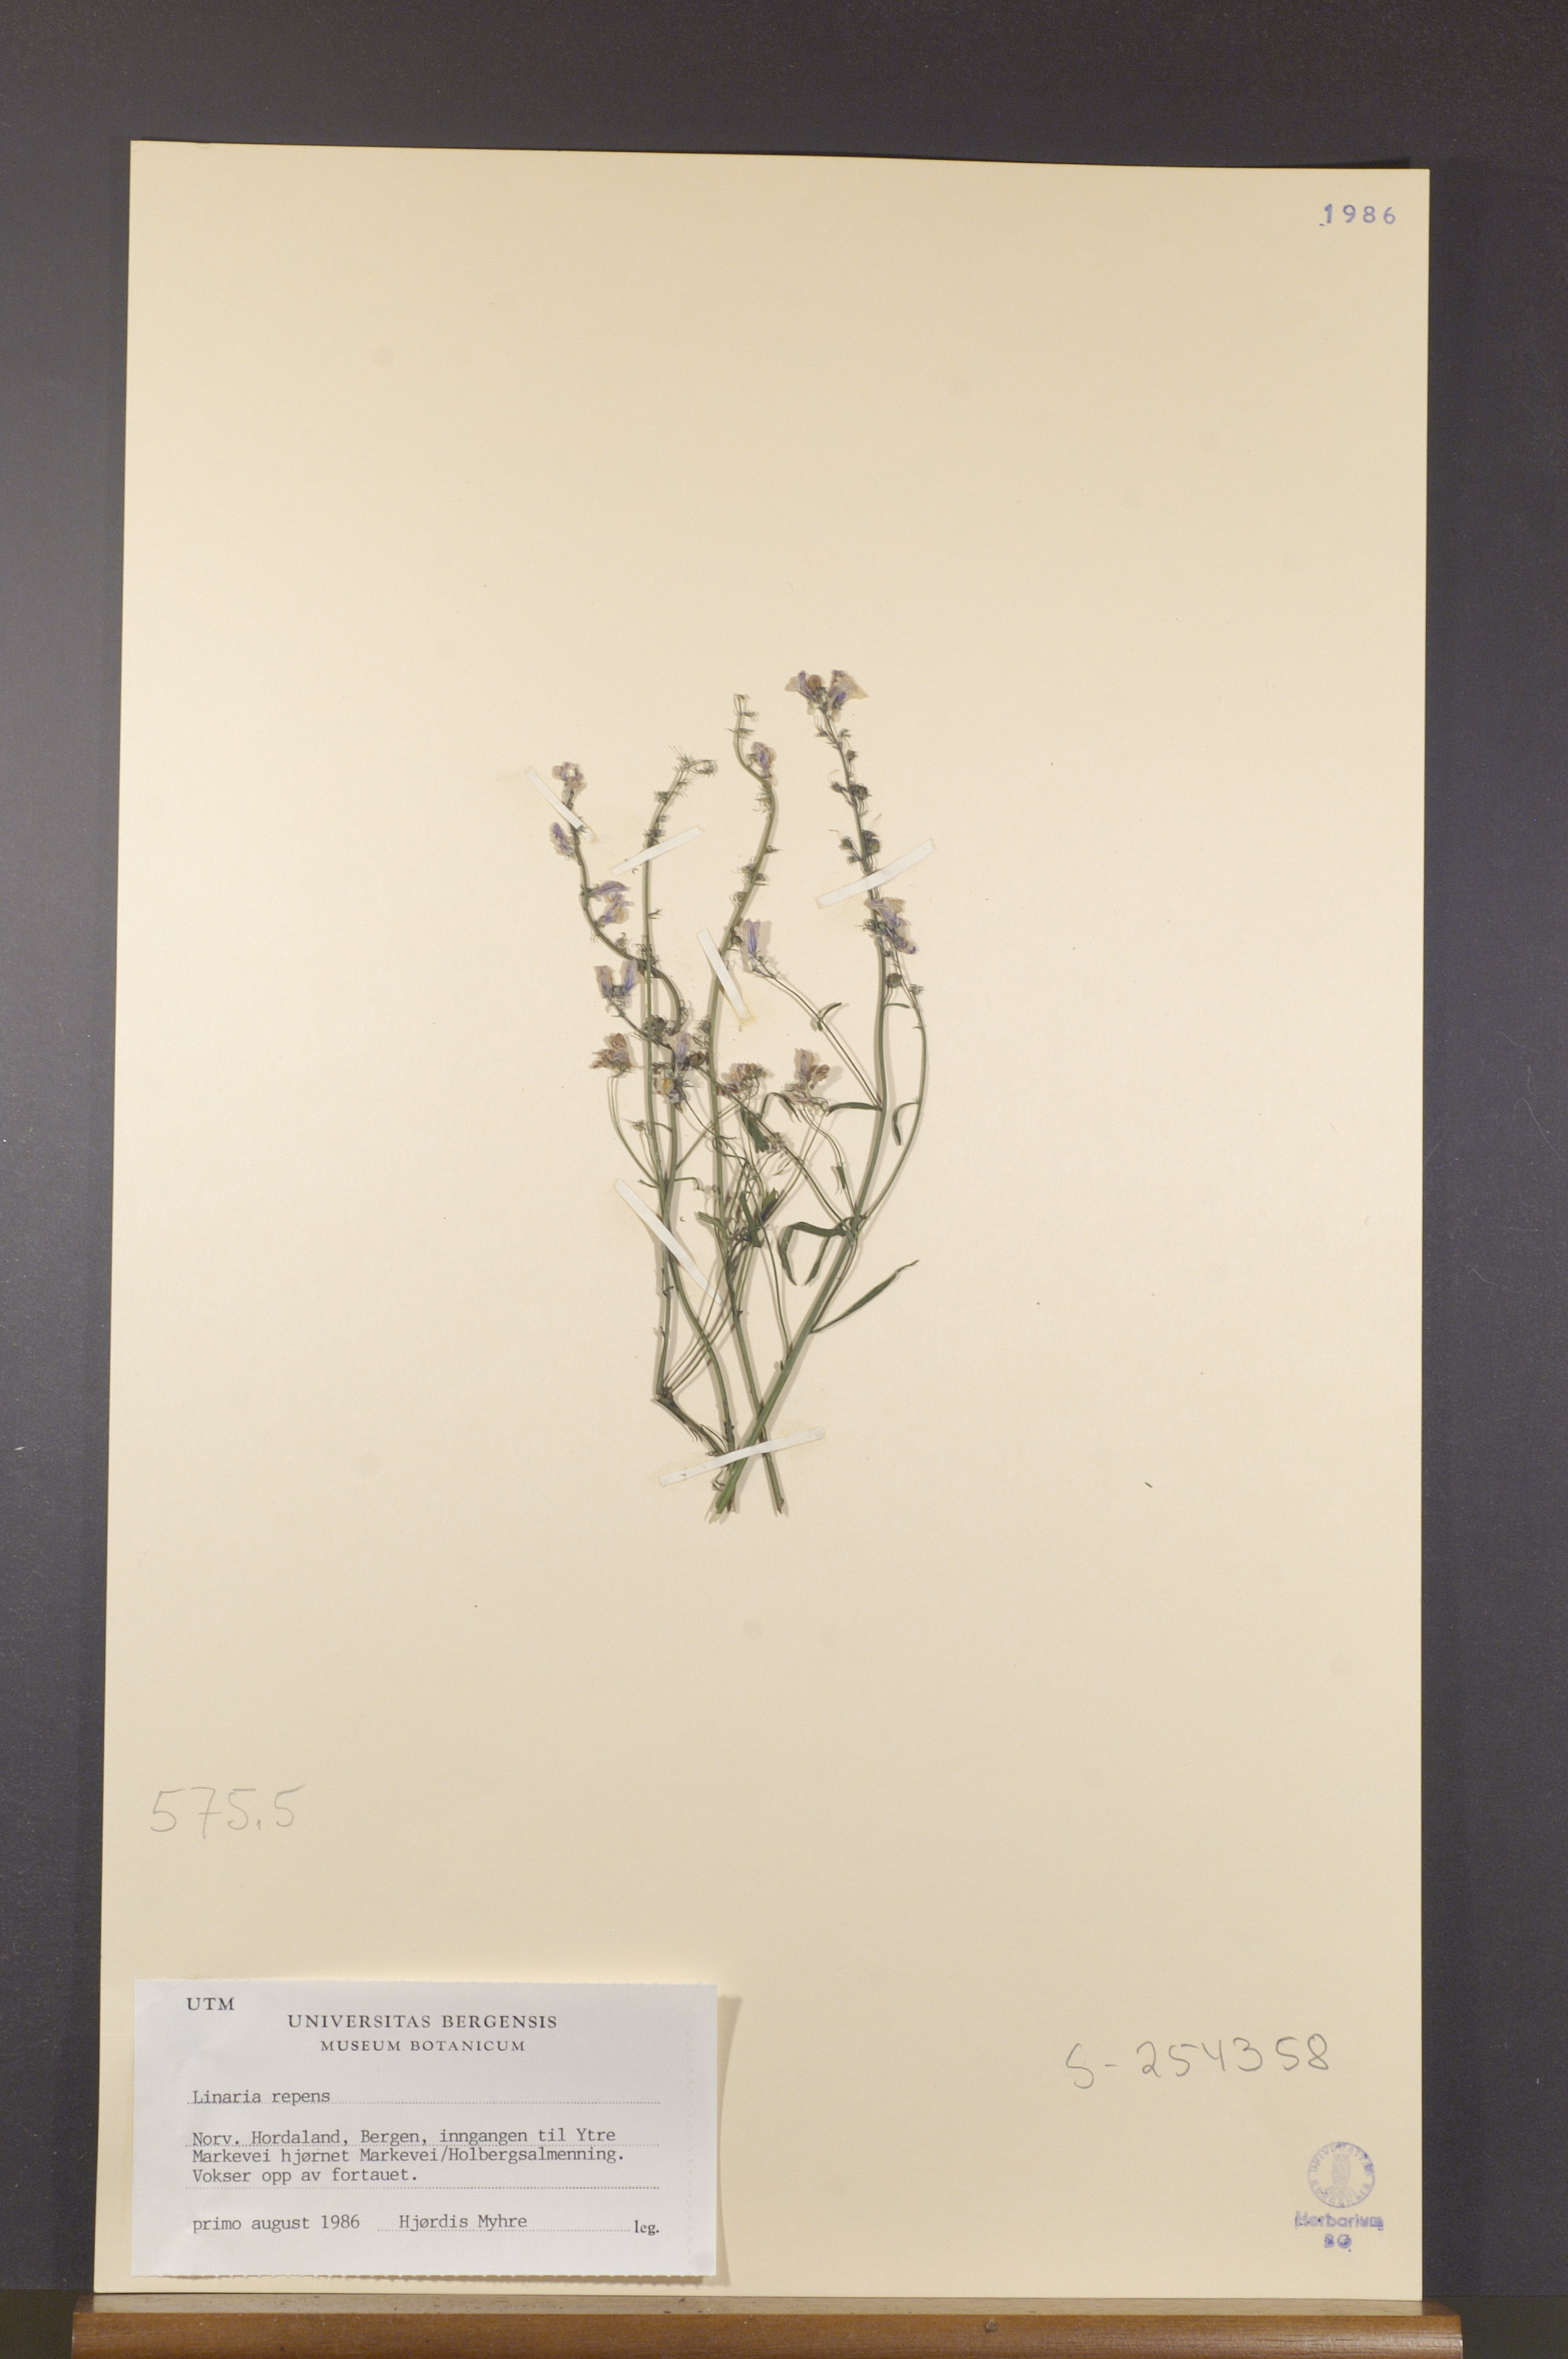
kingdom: Plantae
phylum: Tracheophyta
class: Magnoliopsida
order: Lamiales
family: Plantaginaceae
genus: Linaria
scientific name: Linaria repens
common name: Pale toadflax
